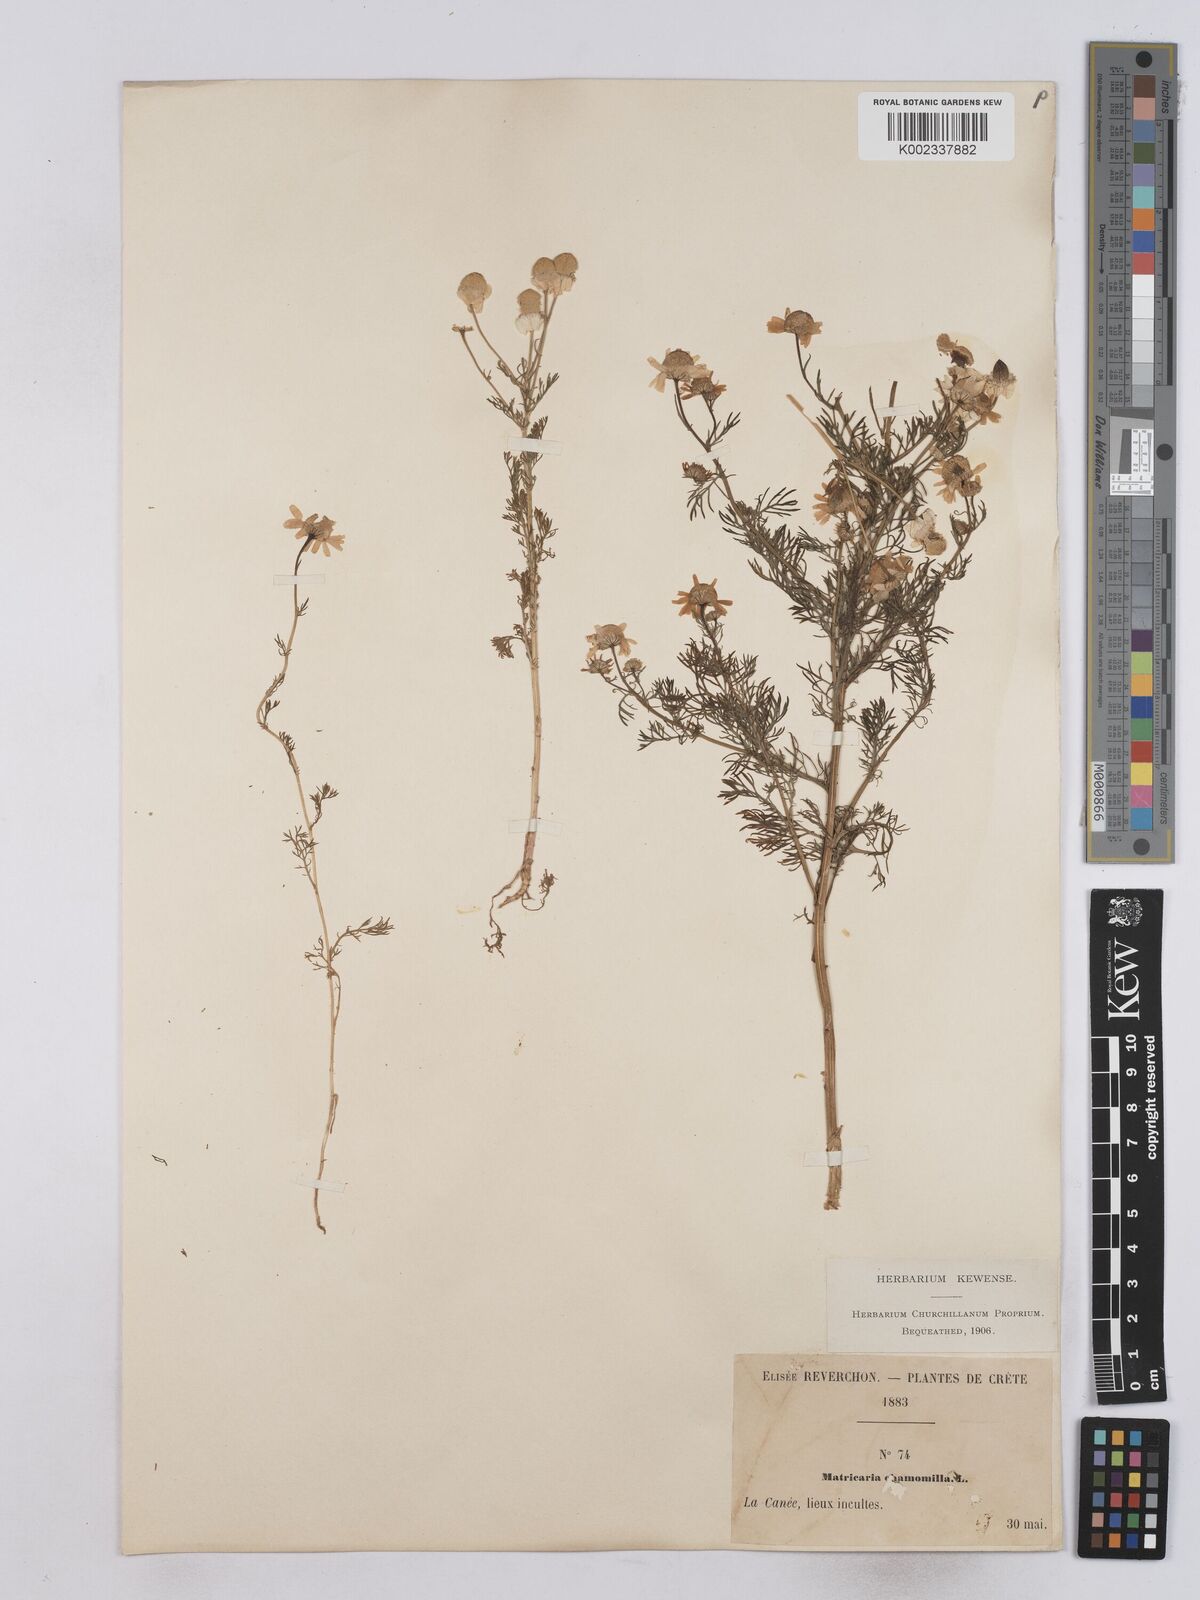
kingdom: Plantae
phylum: Tracheophyta
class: Magnoliopsida
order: Asterales
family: Asteraceae
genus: Matricaria
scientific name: Matricaria chamomilla
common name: Scented mayweed
